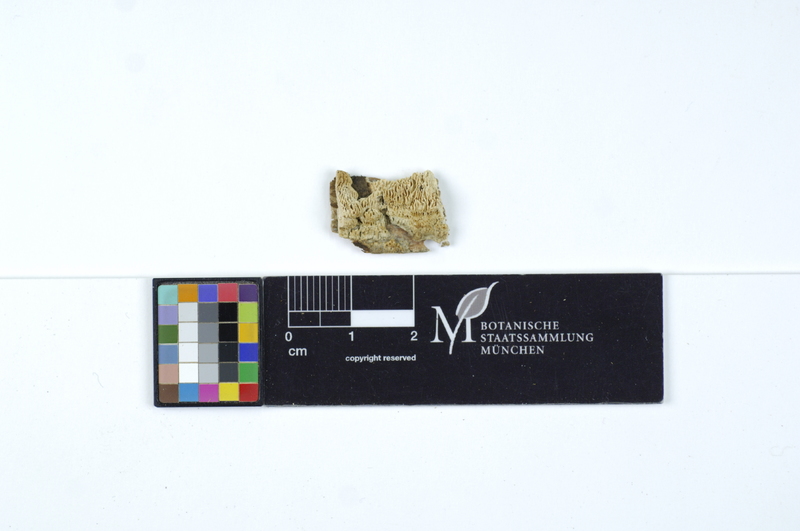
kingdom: Fungi
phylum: Basidiomycota
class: Agaricomycetes
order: Polyporales
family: Fomitopsidaceae
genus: Antrodia
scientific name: Antrodia macra
